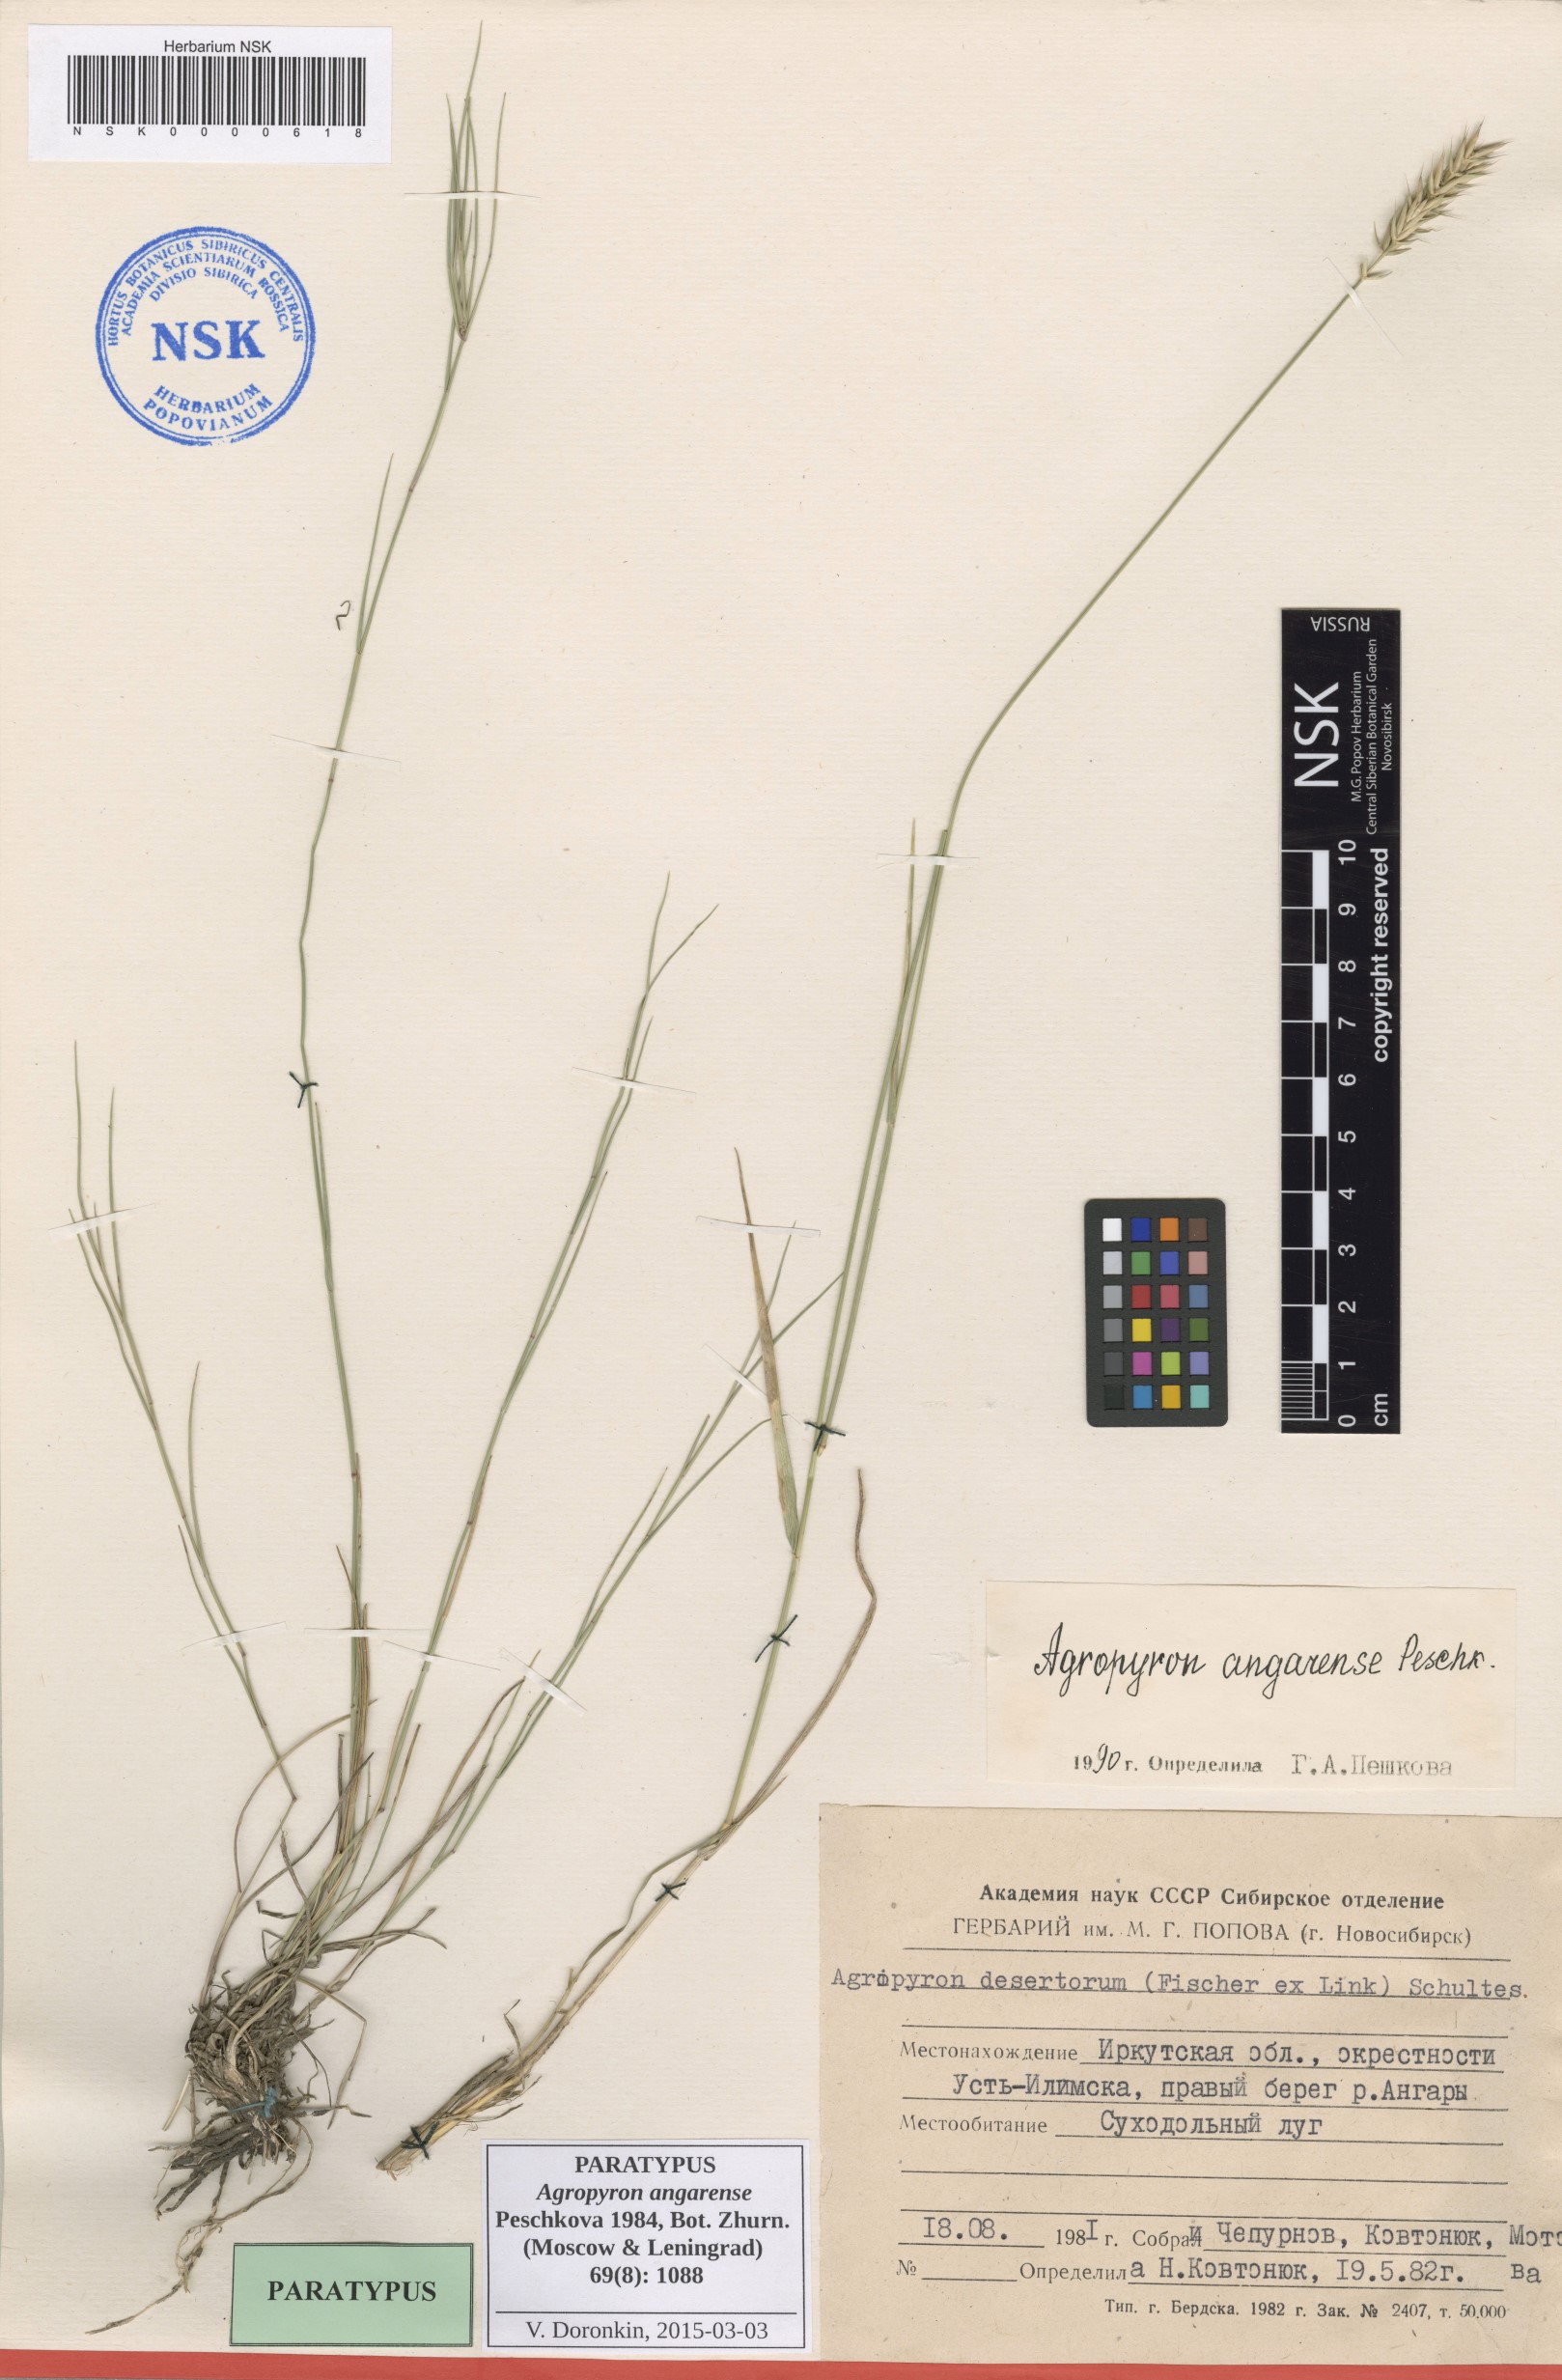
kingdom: Plantae
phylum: Tracheophyta
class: Liliopsida
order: Poales
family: Poaceae
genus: Agropyron
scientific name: Agropyron desertorum
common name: Desert wheatgrass
